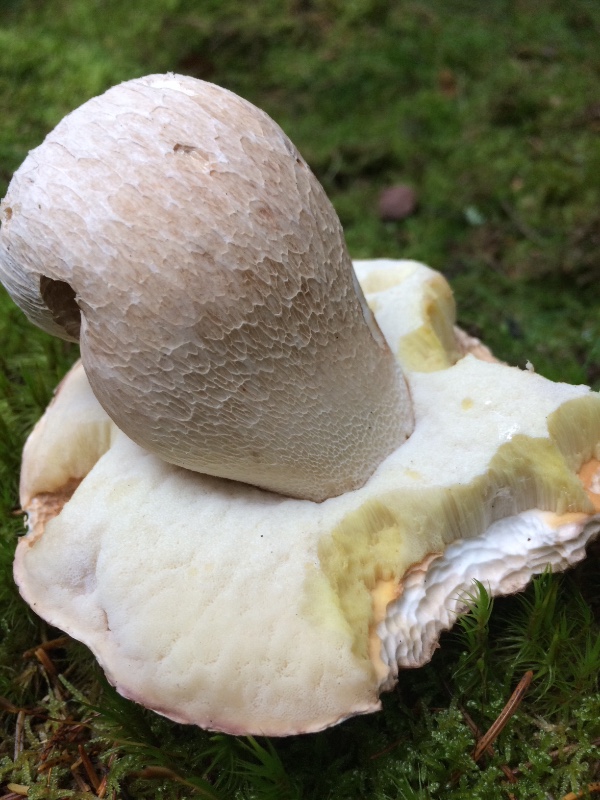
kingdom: Fungi
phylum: Basidiomycota
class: Agaricomycetes
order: Boletales
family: Boletaceae
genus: Boletus
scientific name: Boletus edulis
